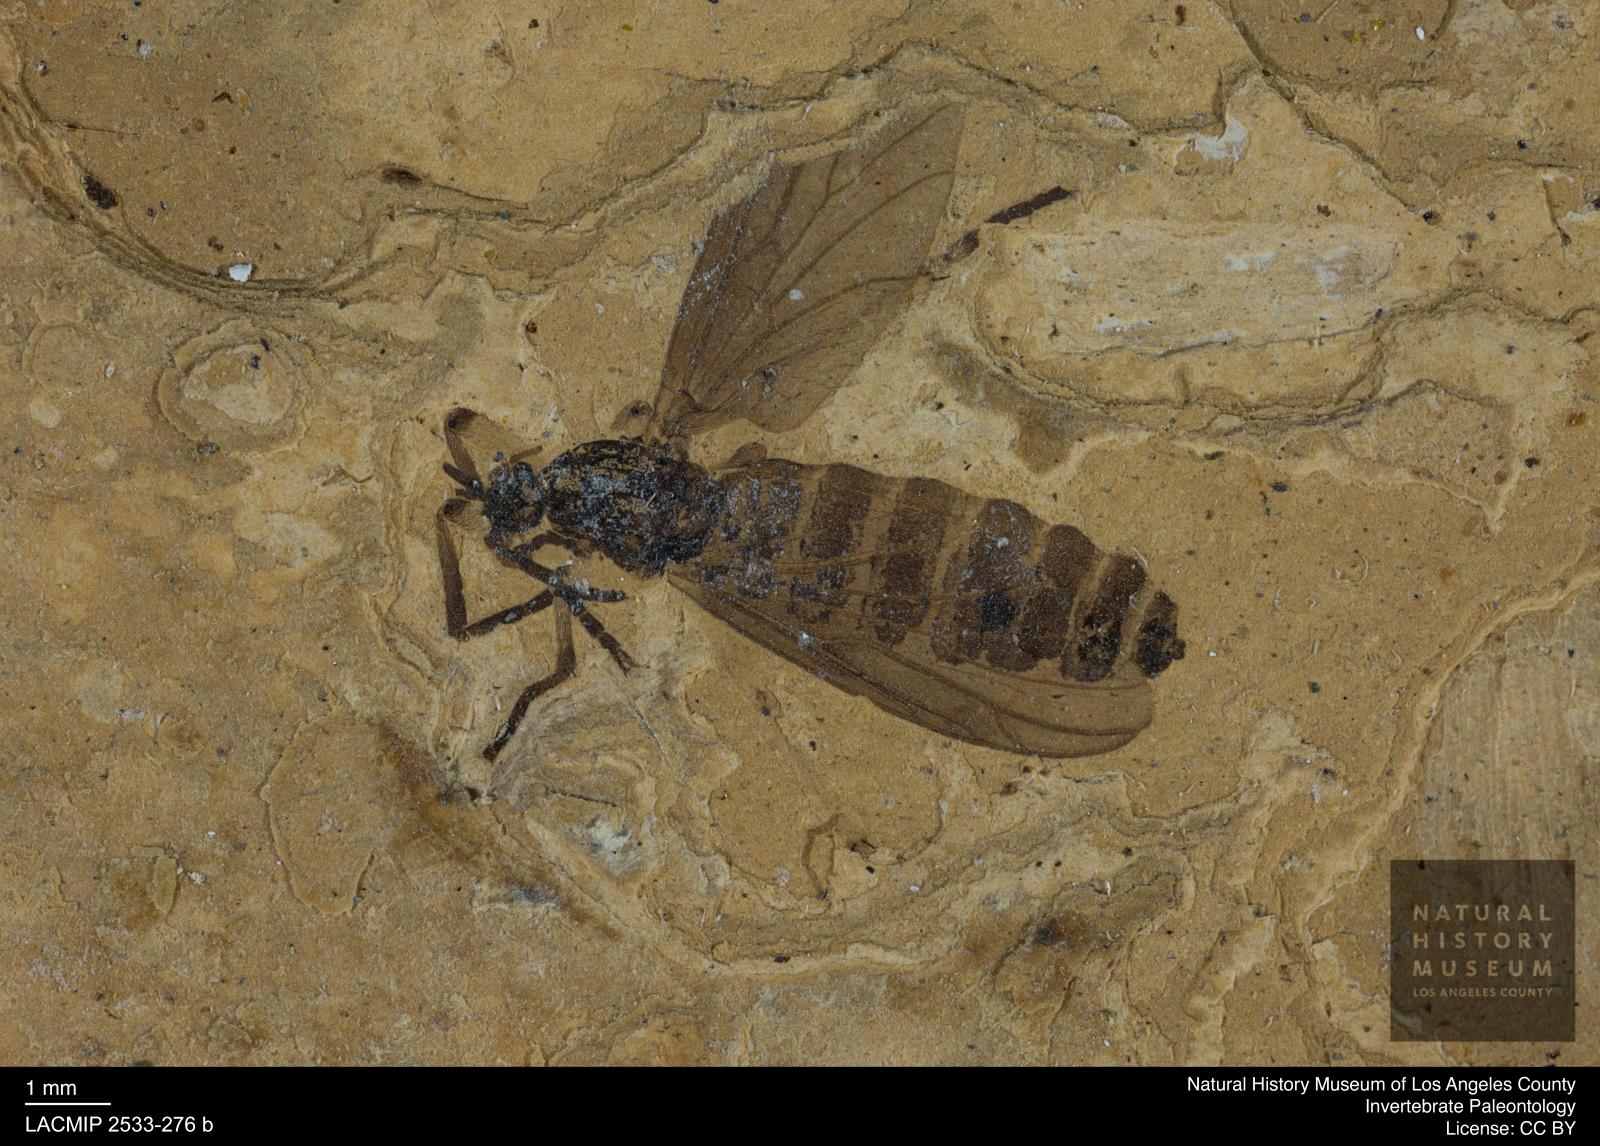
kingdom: Animalia
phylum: Arthropoda
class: Insecta
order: Diptera
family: Bibionidae
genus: Plecia
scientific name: Plecia pinguis
